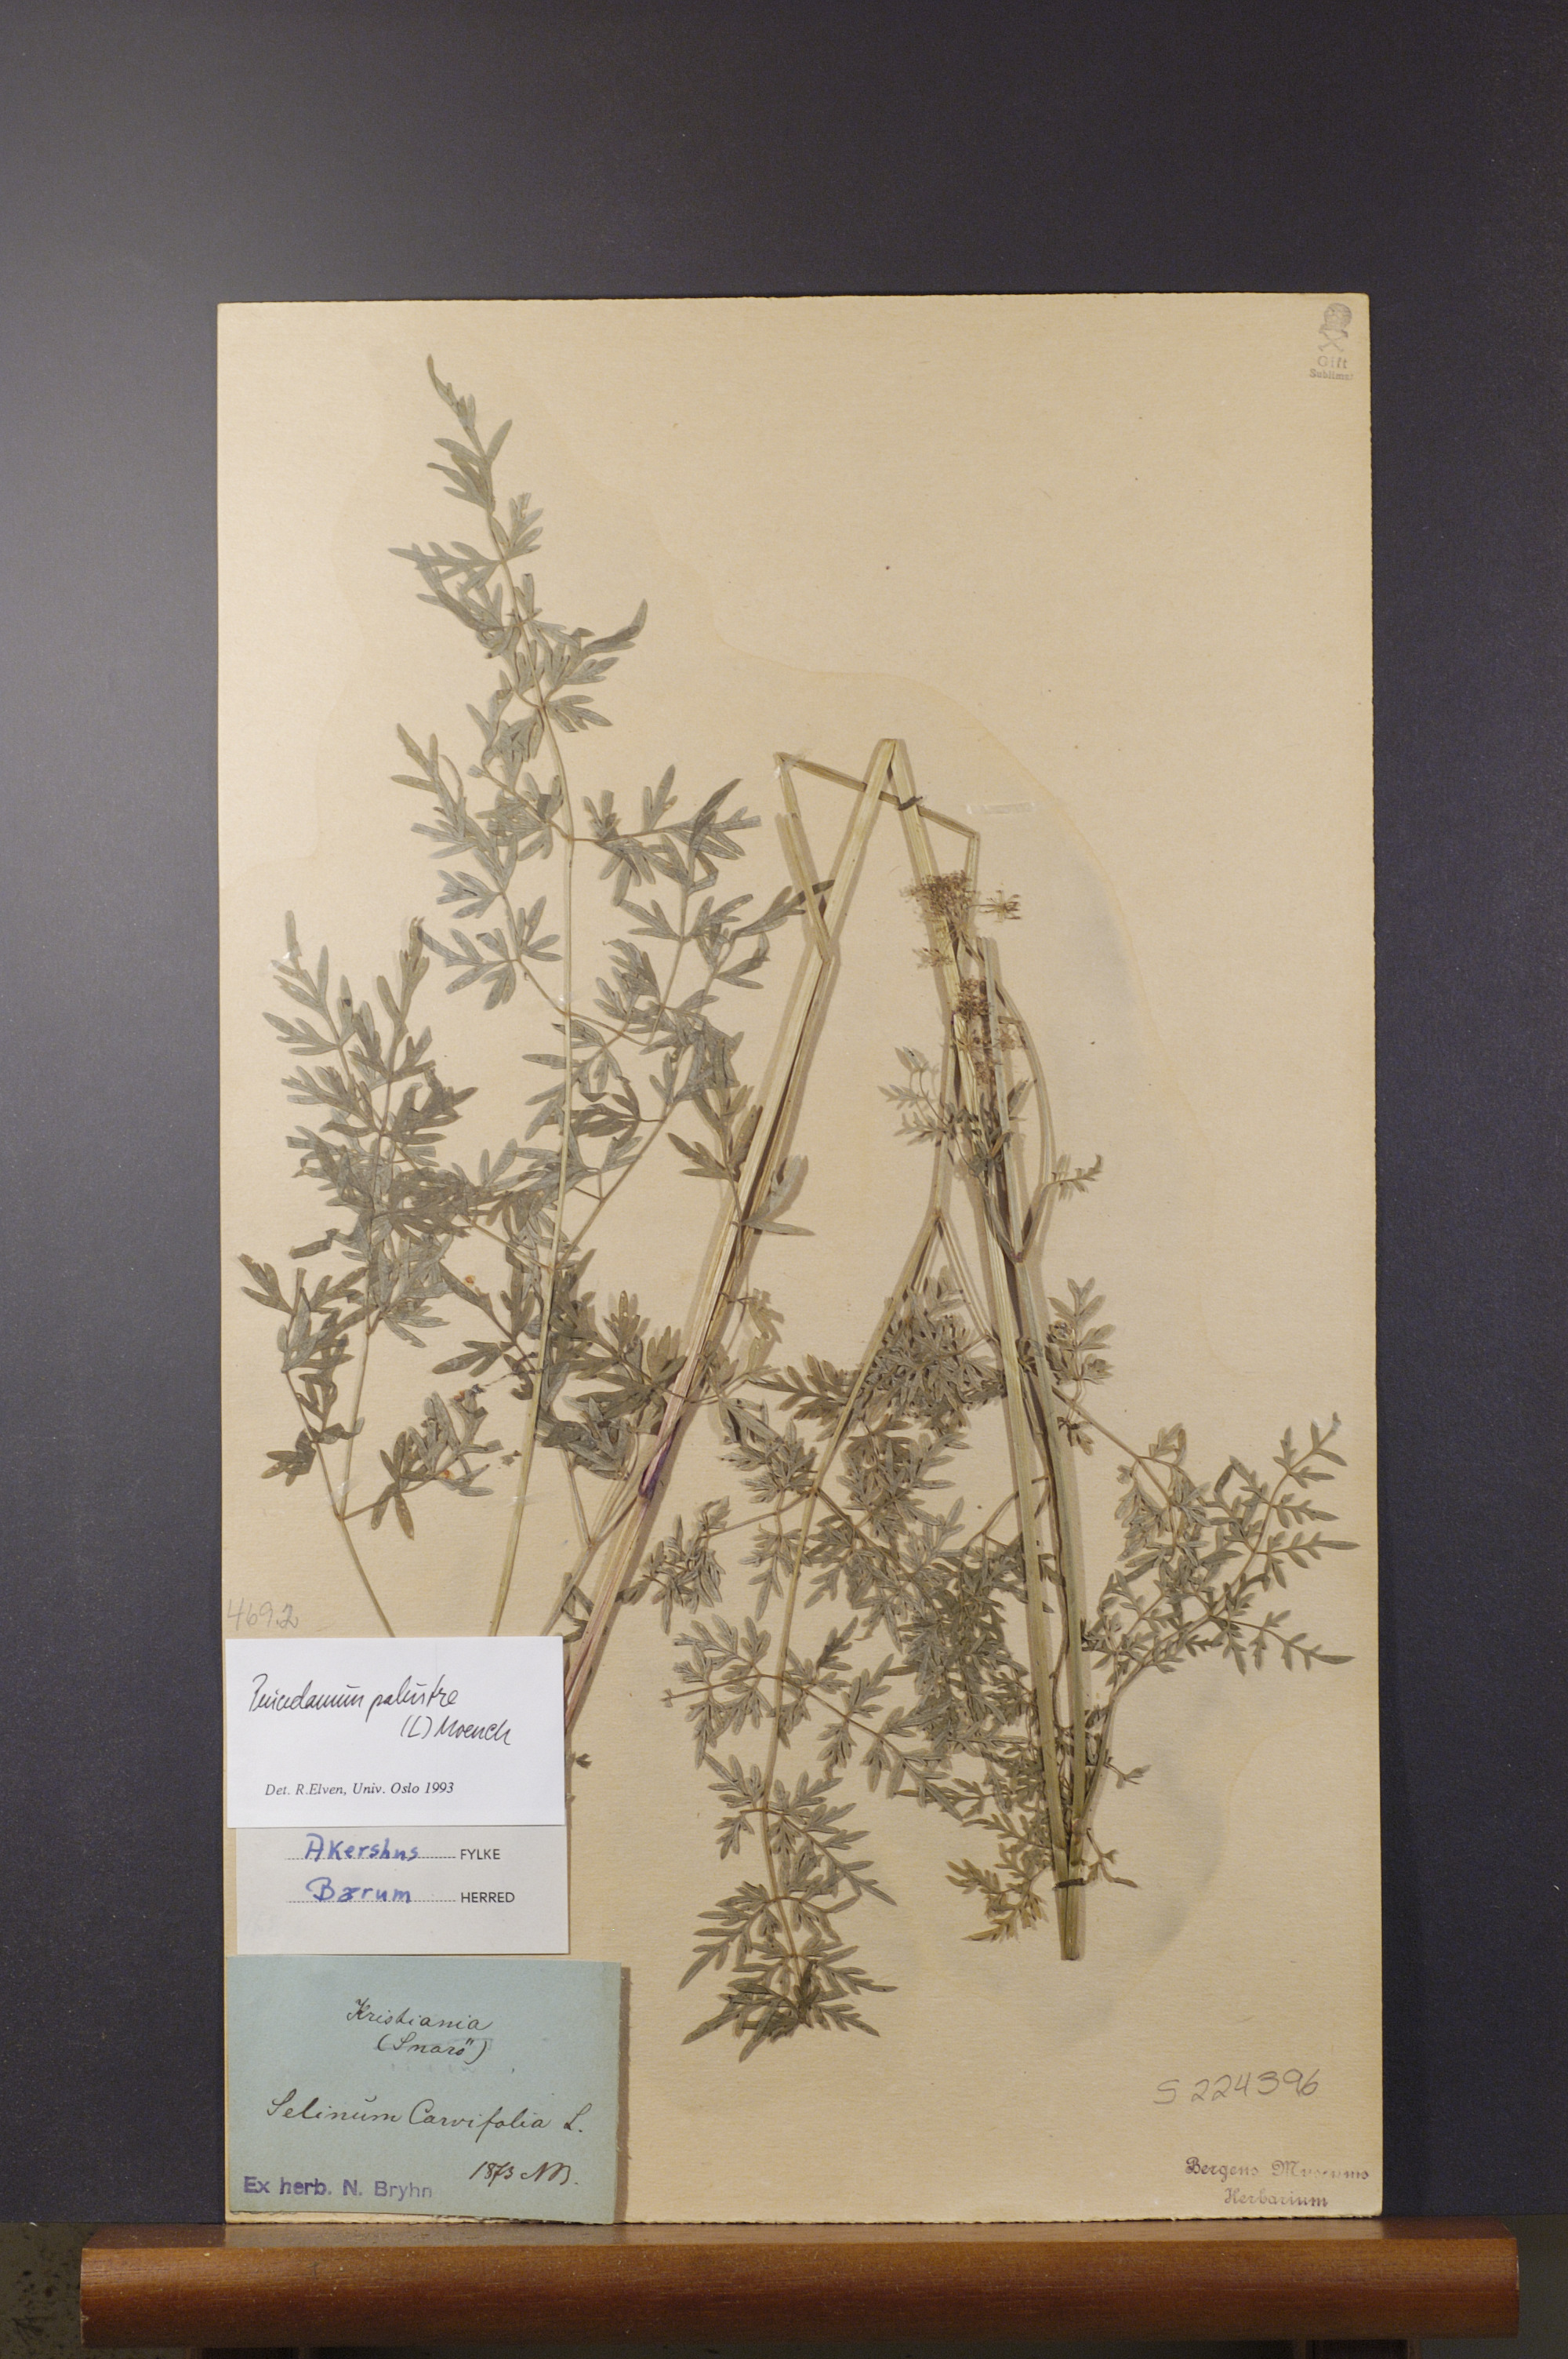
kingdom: Plantae
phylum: Tracheophyta
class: Magnoliopsida
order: Apiales
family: Apiaceae
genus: Thysselinum
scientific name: Thysselinum palustre
